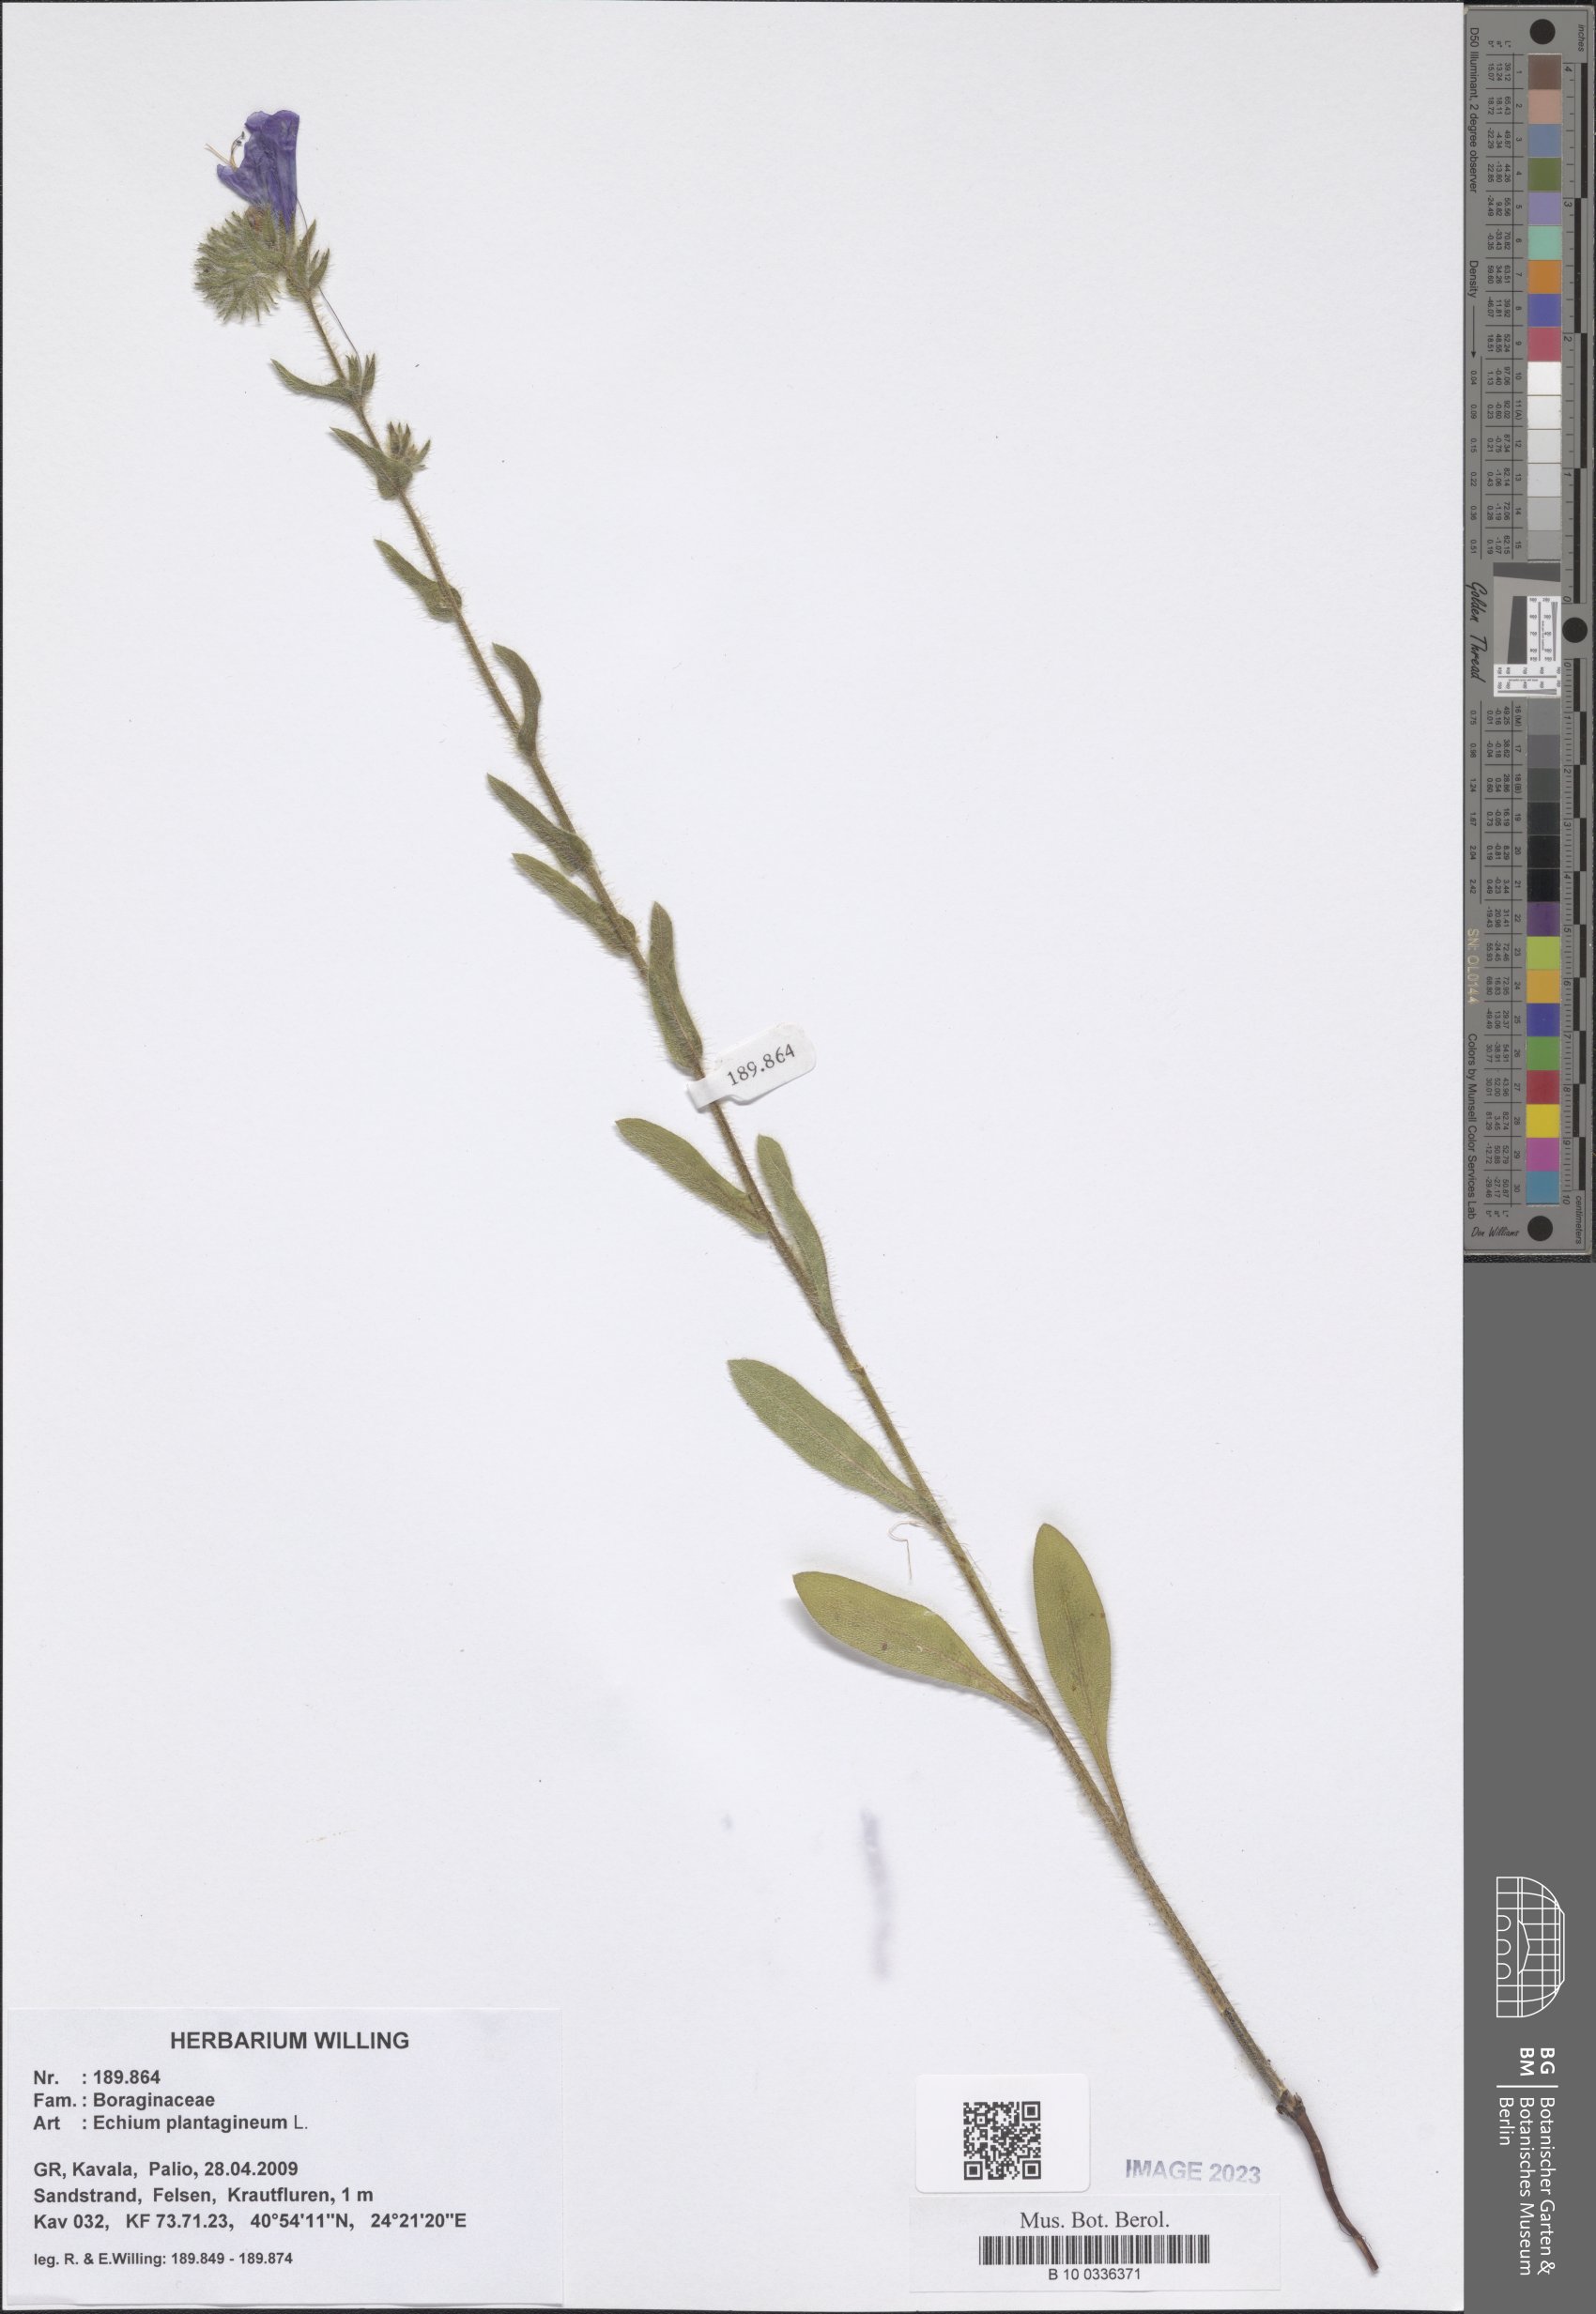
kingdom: Plantae
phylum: Tracheophyta
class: Magnoliopsida
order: Boraginales
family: Boraginaceae
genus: Echium
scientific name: Echium plantagineum
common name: Purple viper's-bugloss
